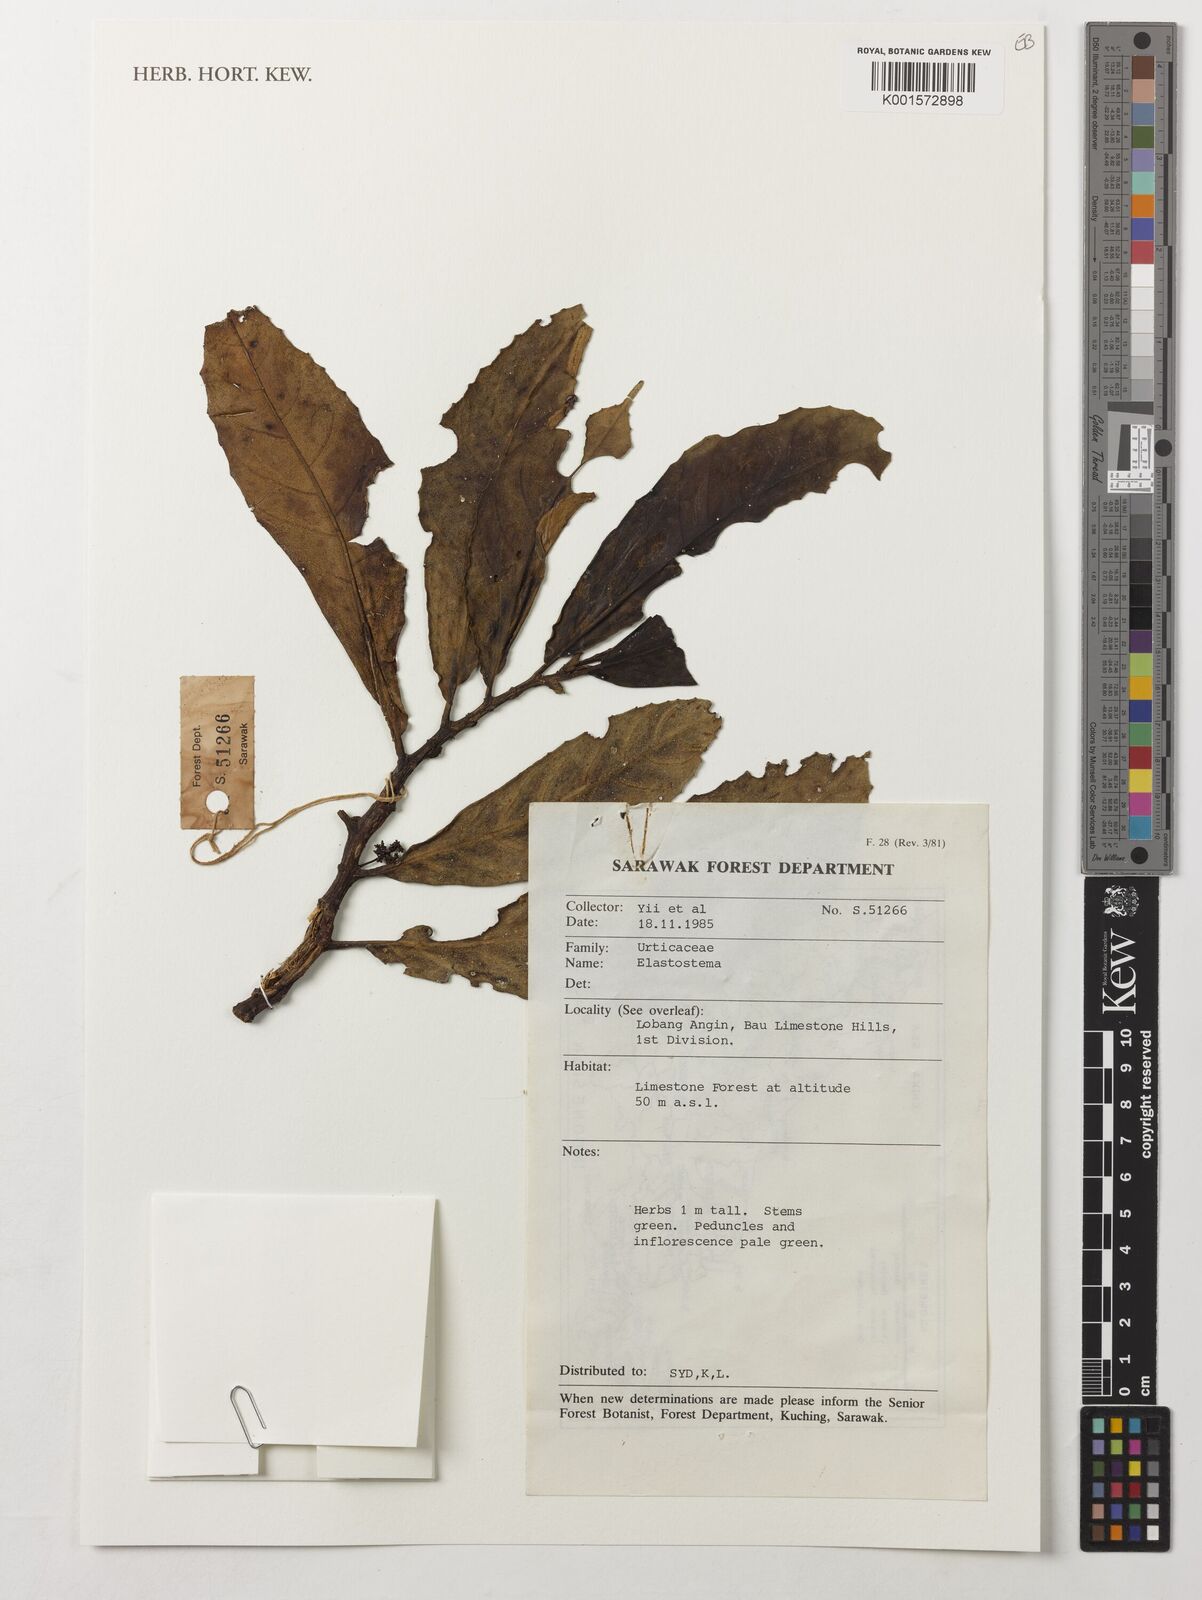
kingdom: Plantae
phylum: Tracheophyta
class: Magnoliopsida
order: Rosales
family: Urticaceae
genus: Elatostema
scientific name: Elatostema
